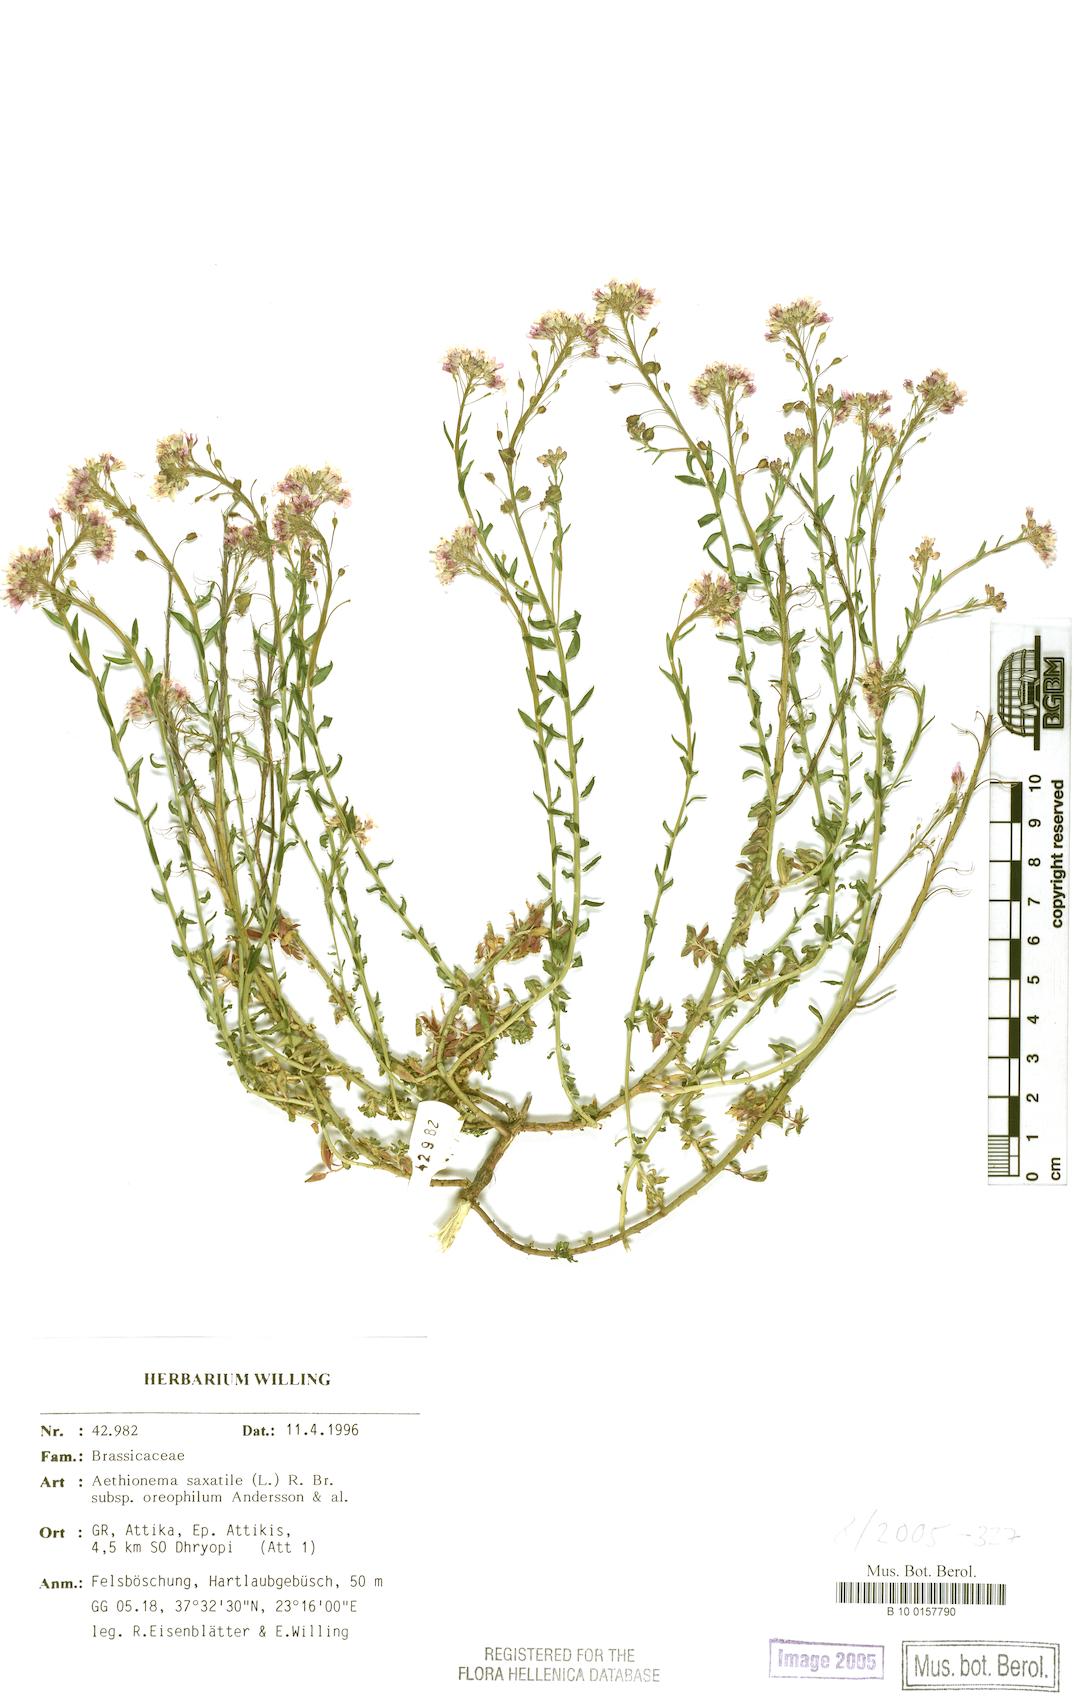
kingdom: Plantae
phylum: Tracheophyta
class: Magnoliopsida
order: Brassicales
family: Brassicaceae
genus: Aethionema
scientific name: Aethionema saxatile
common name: Burnt candytuft
